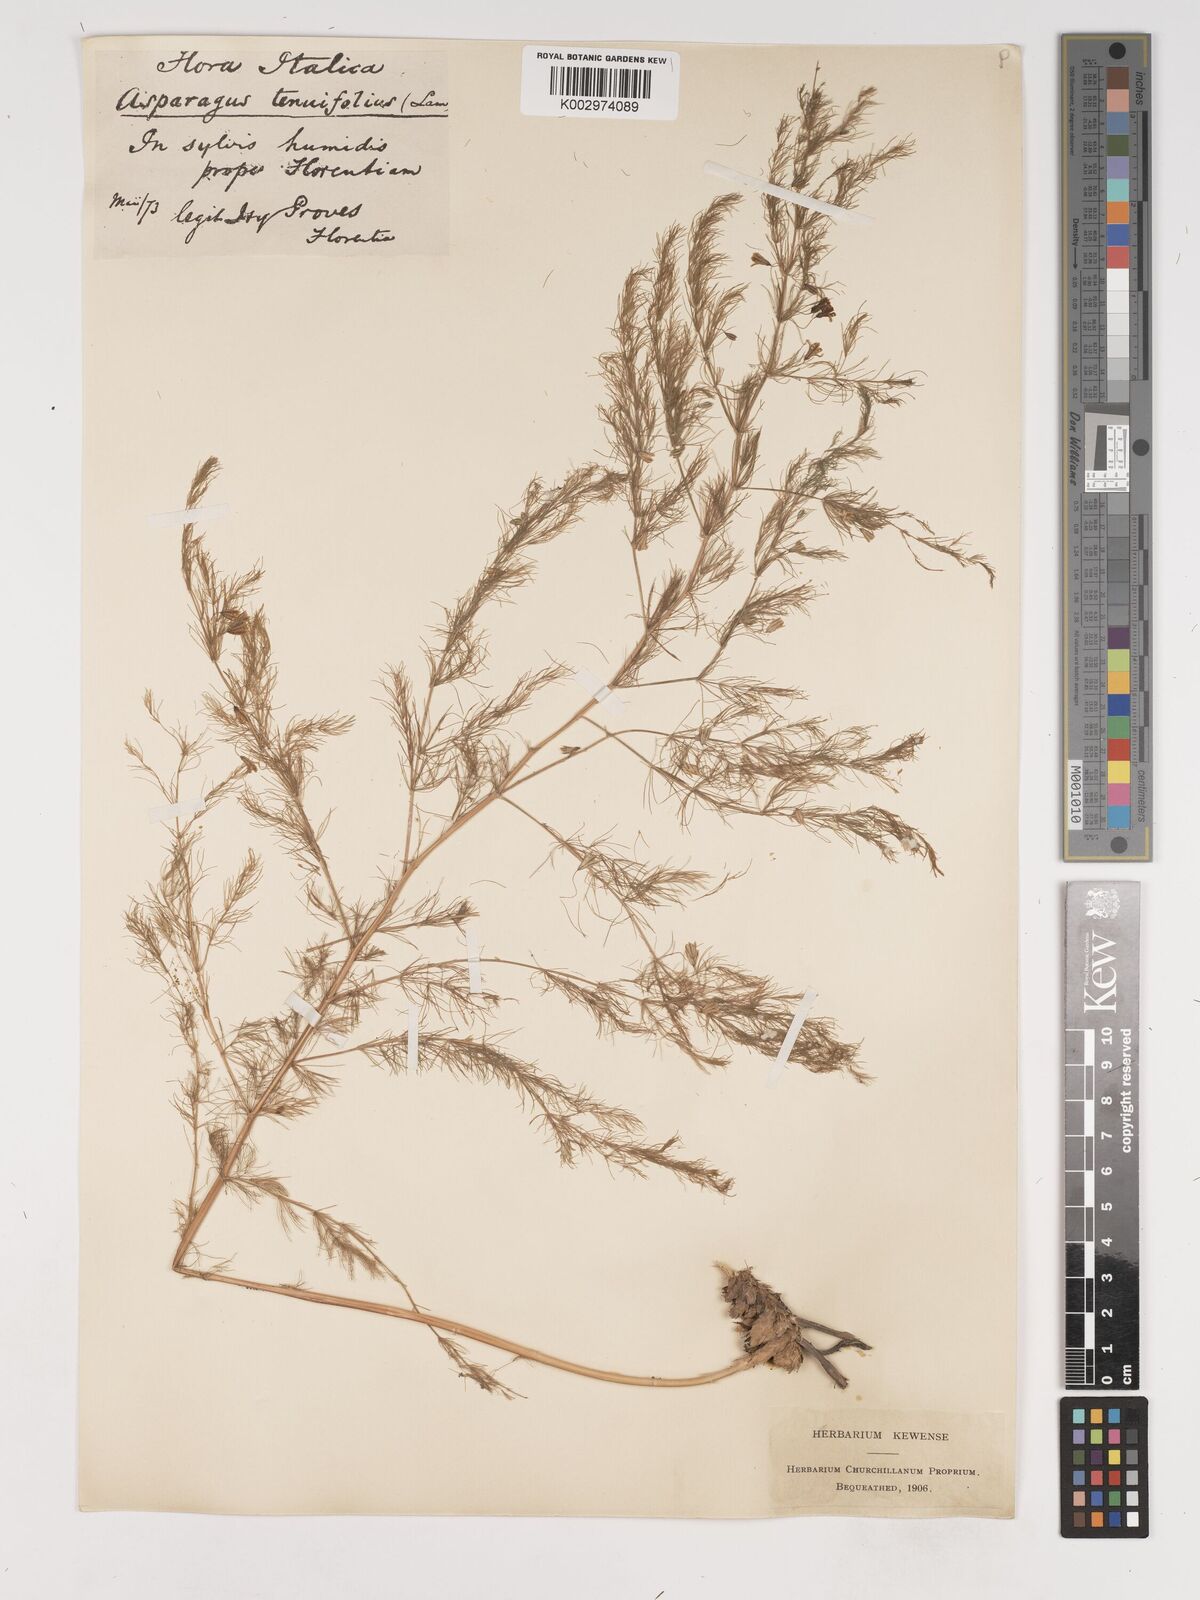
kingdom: Plantae
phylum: Tracheophyta
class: Liliopsida
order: Asparagales
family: Asparagaceae
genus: Asparagus
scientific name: Asparagus tenuifolius
